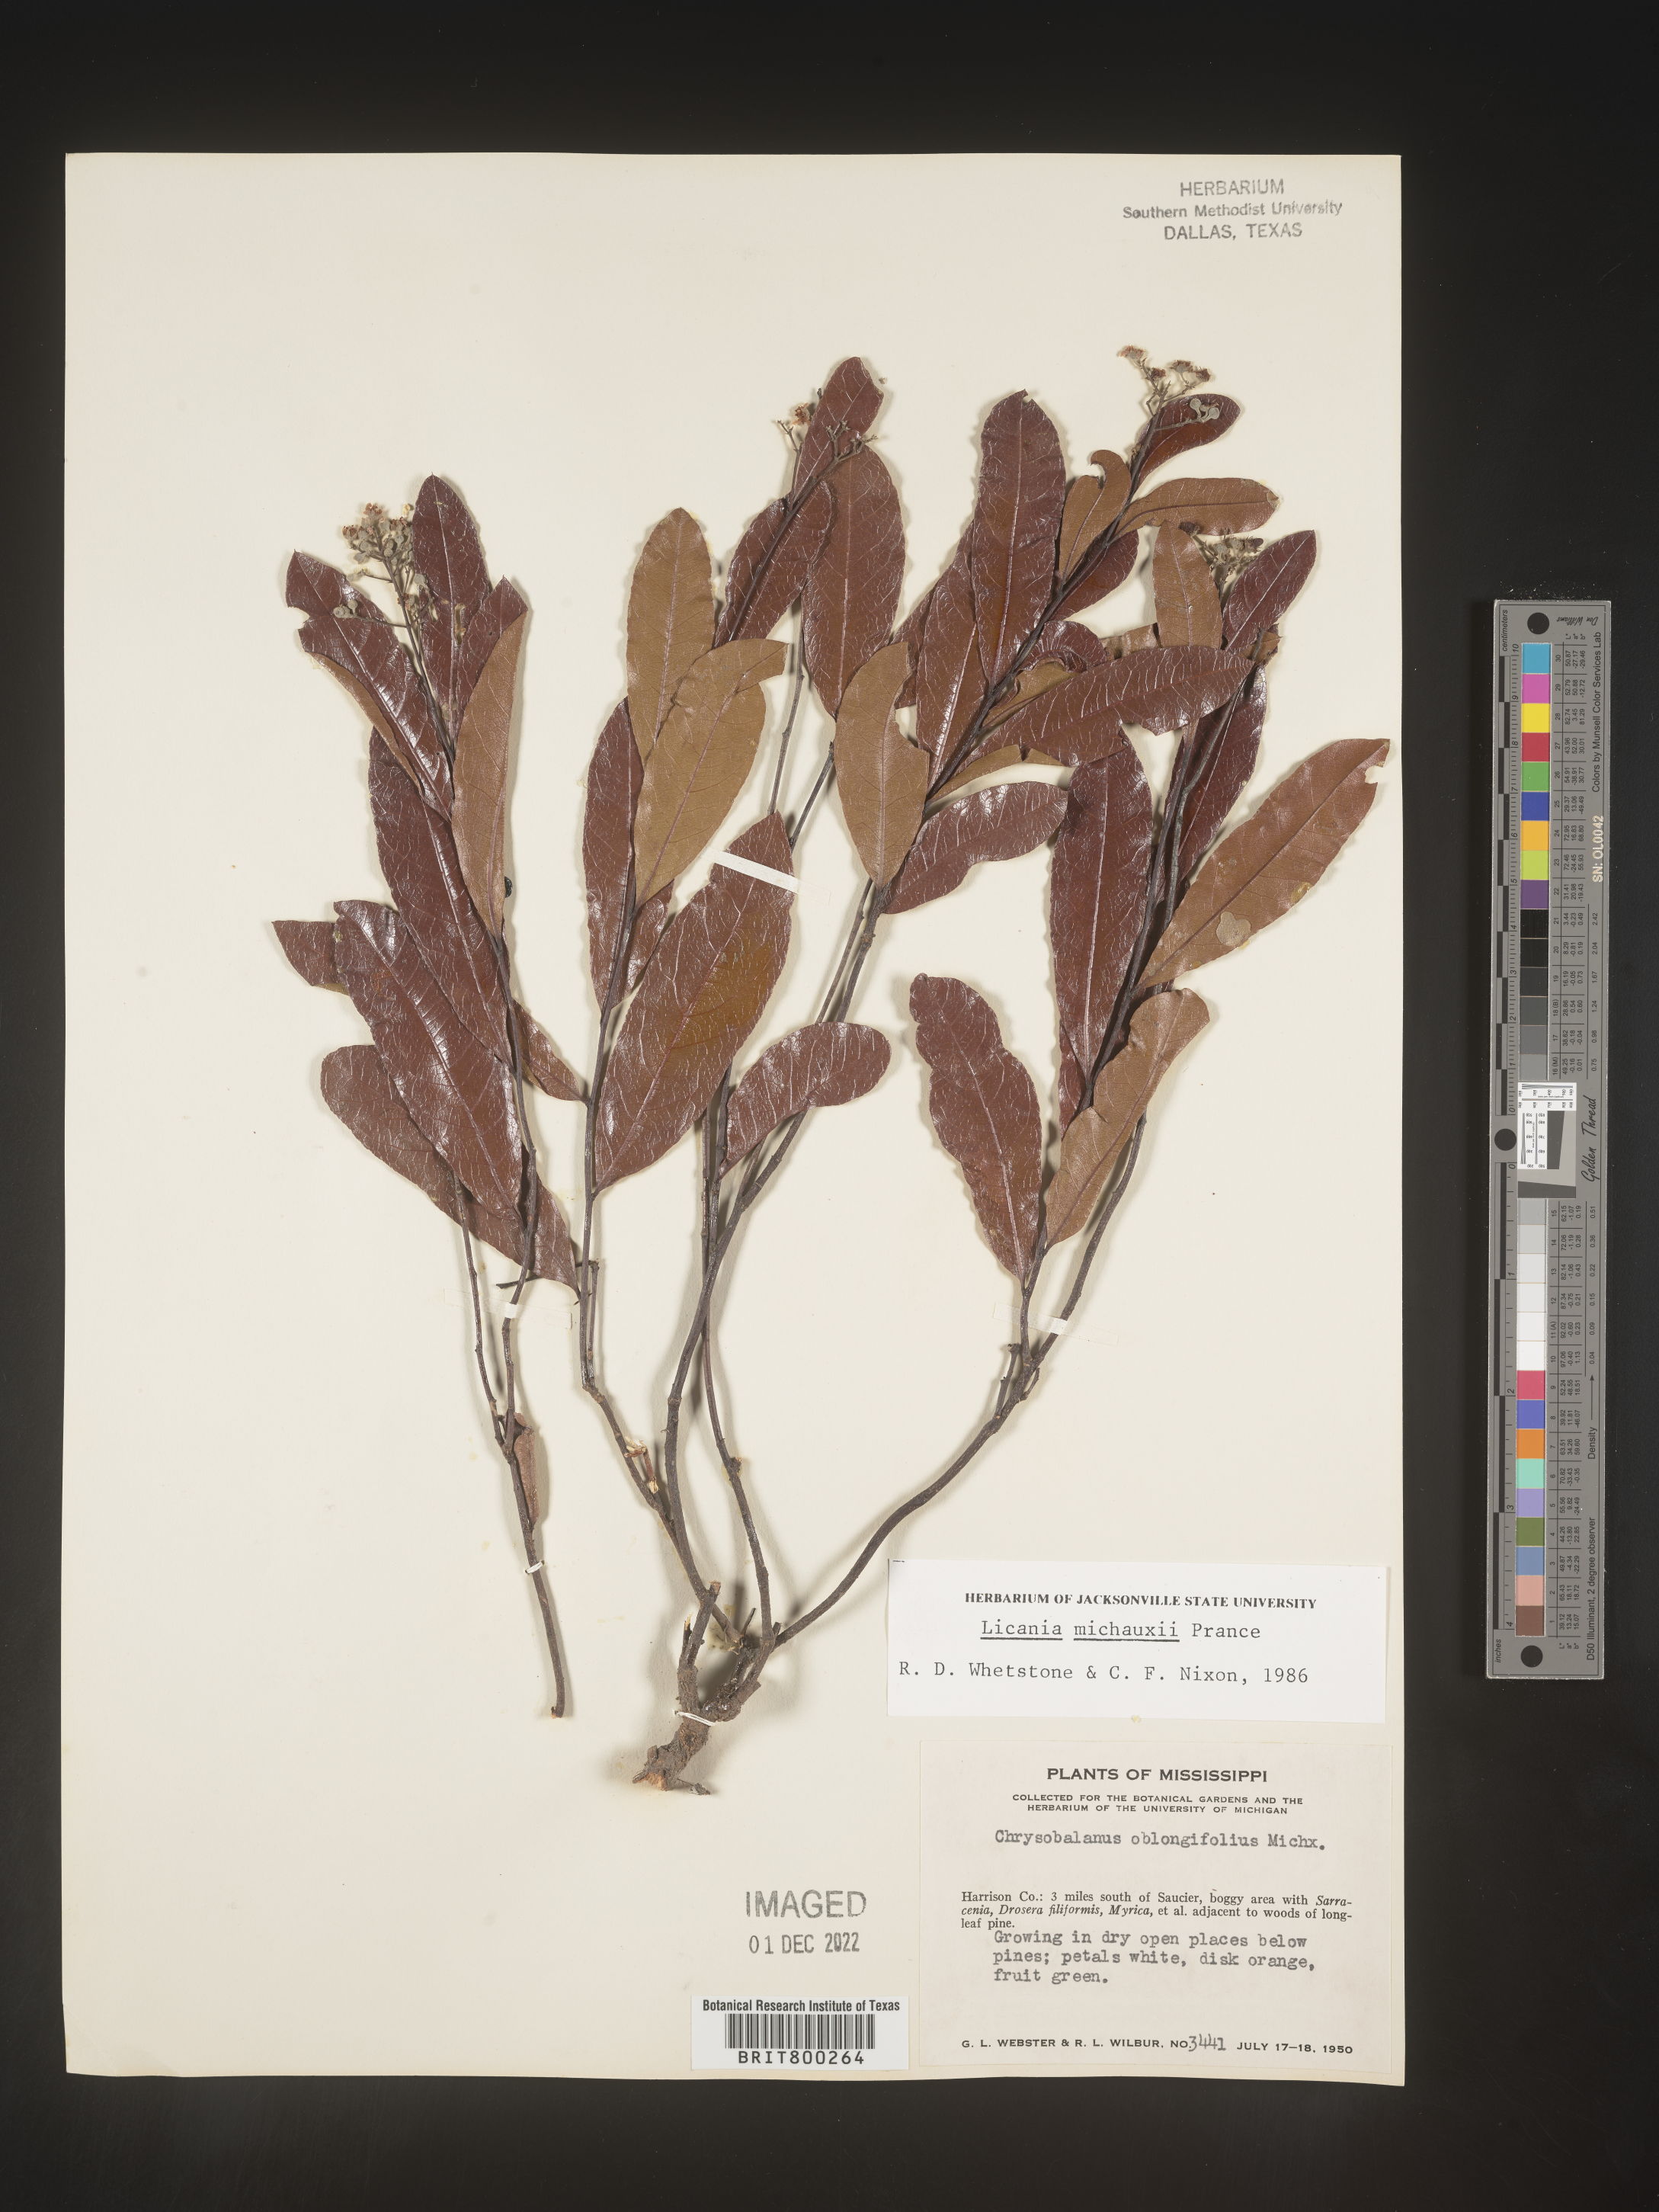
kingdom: Plantae
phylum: Tracheophyta
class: Magnoliopsida
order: Malpighiales
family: Chrysobalanaceae
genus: Geobalanus
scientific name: Geobalanus oblongifolius
